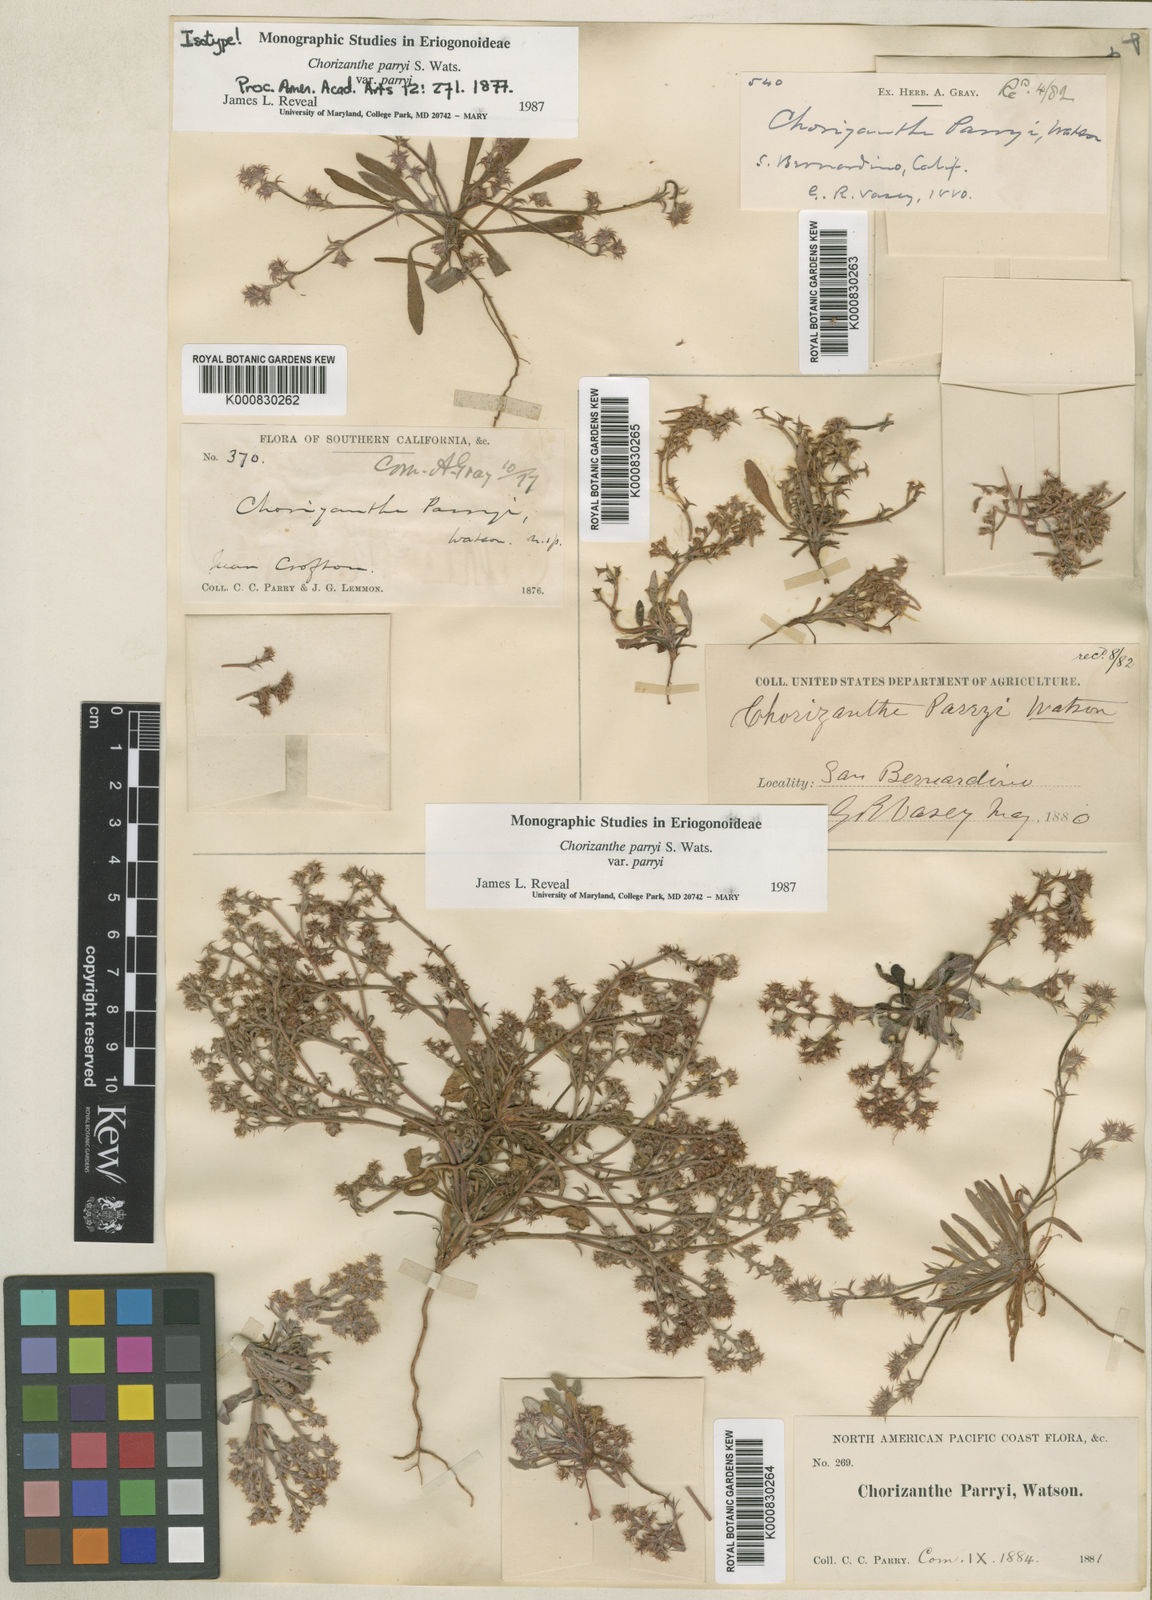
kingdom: Plantae
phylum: Tracheophyta
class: Magnoliopsida
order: Caryophyllales
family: Polygonaceae
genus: Chorizanthe
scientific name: Chorizanthe parryi
